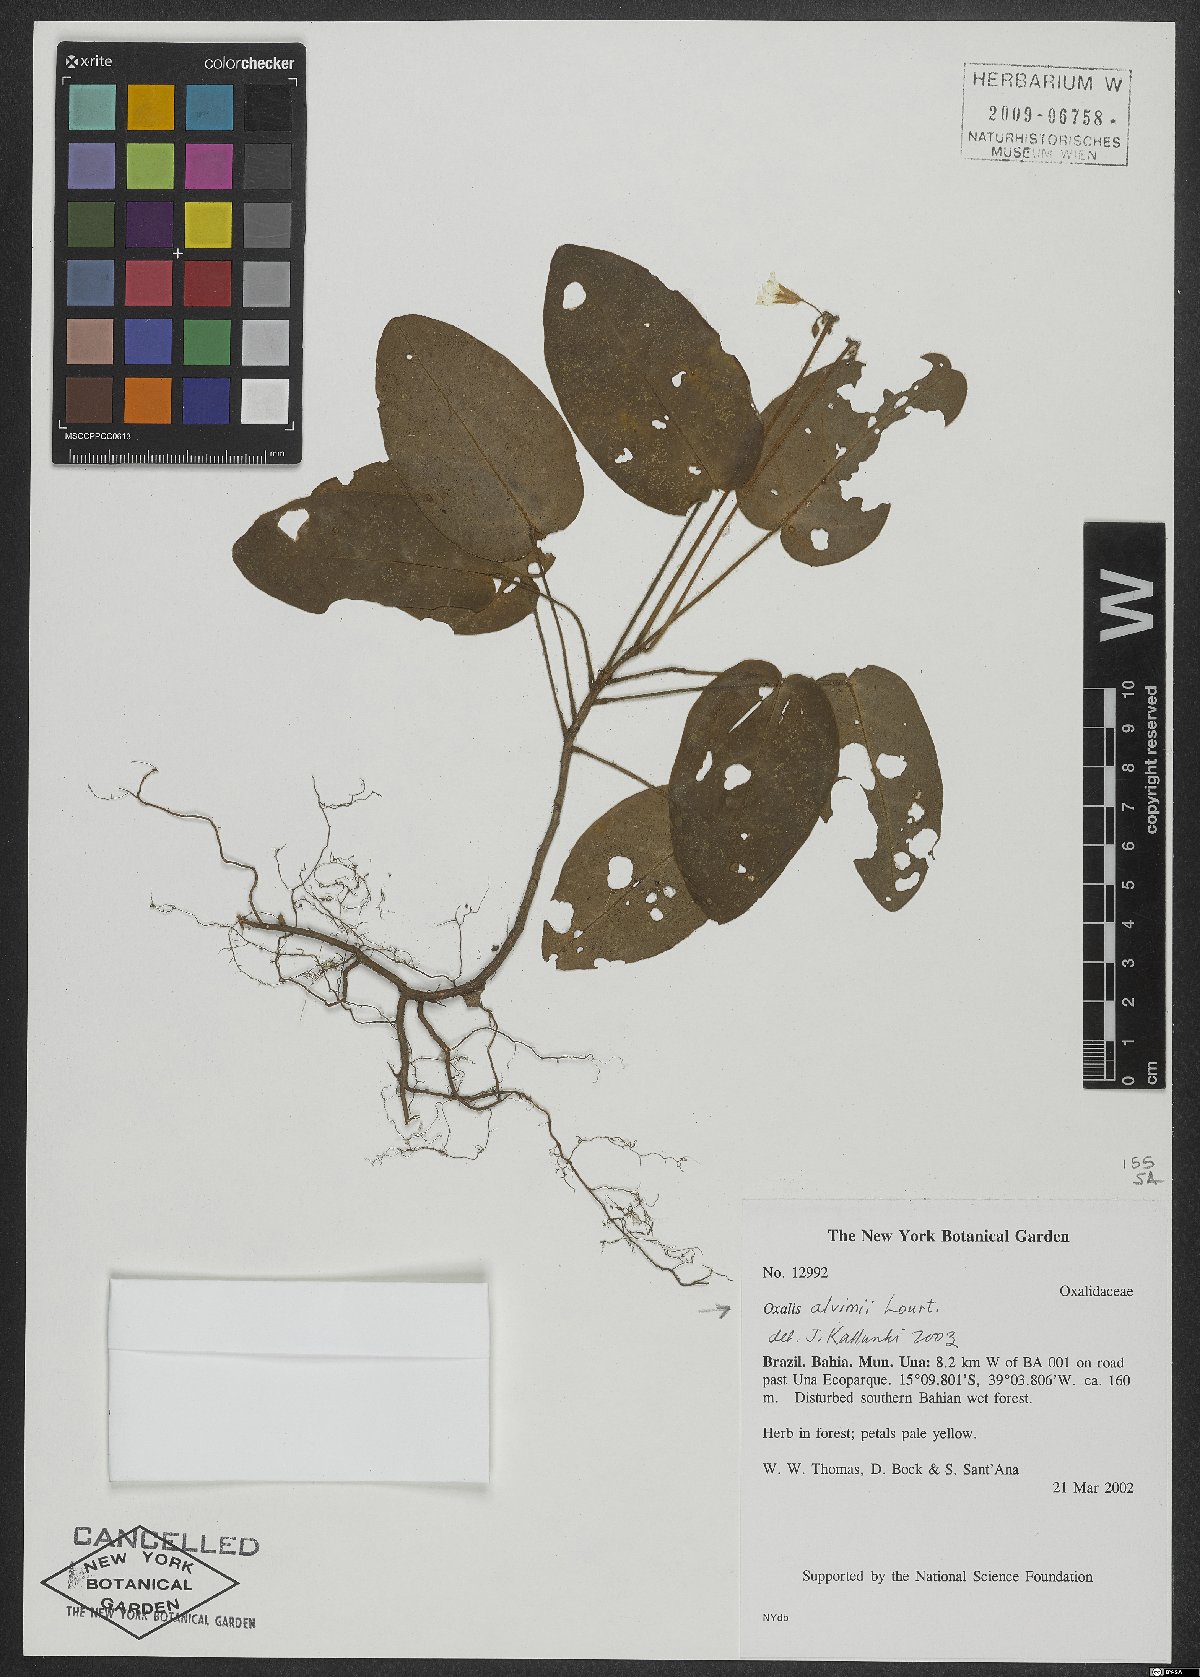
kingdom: Plantae
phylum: Tracheophyta
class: Magnoliopsida
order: Oxalidales
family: Oxalidaceae
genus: Oxalis
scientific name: Oxalis alvimii
